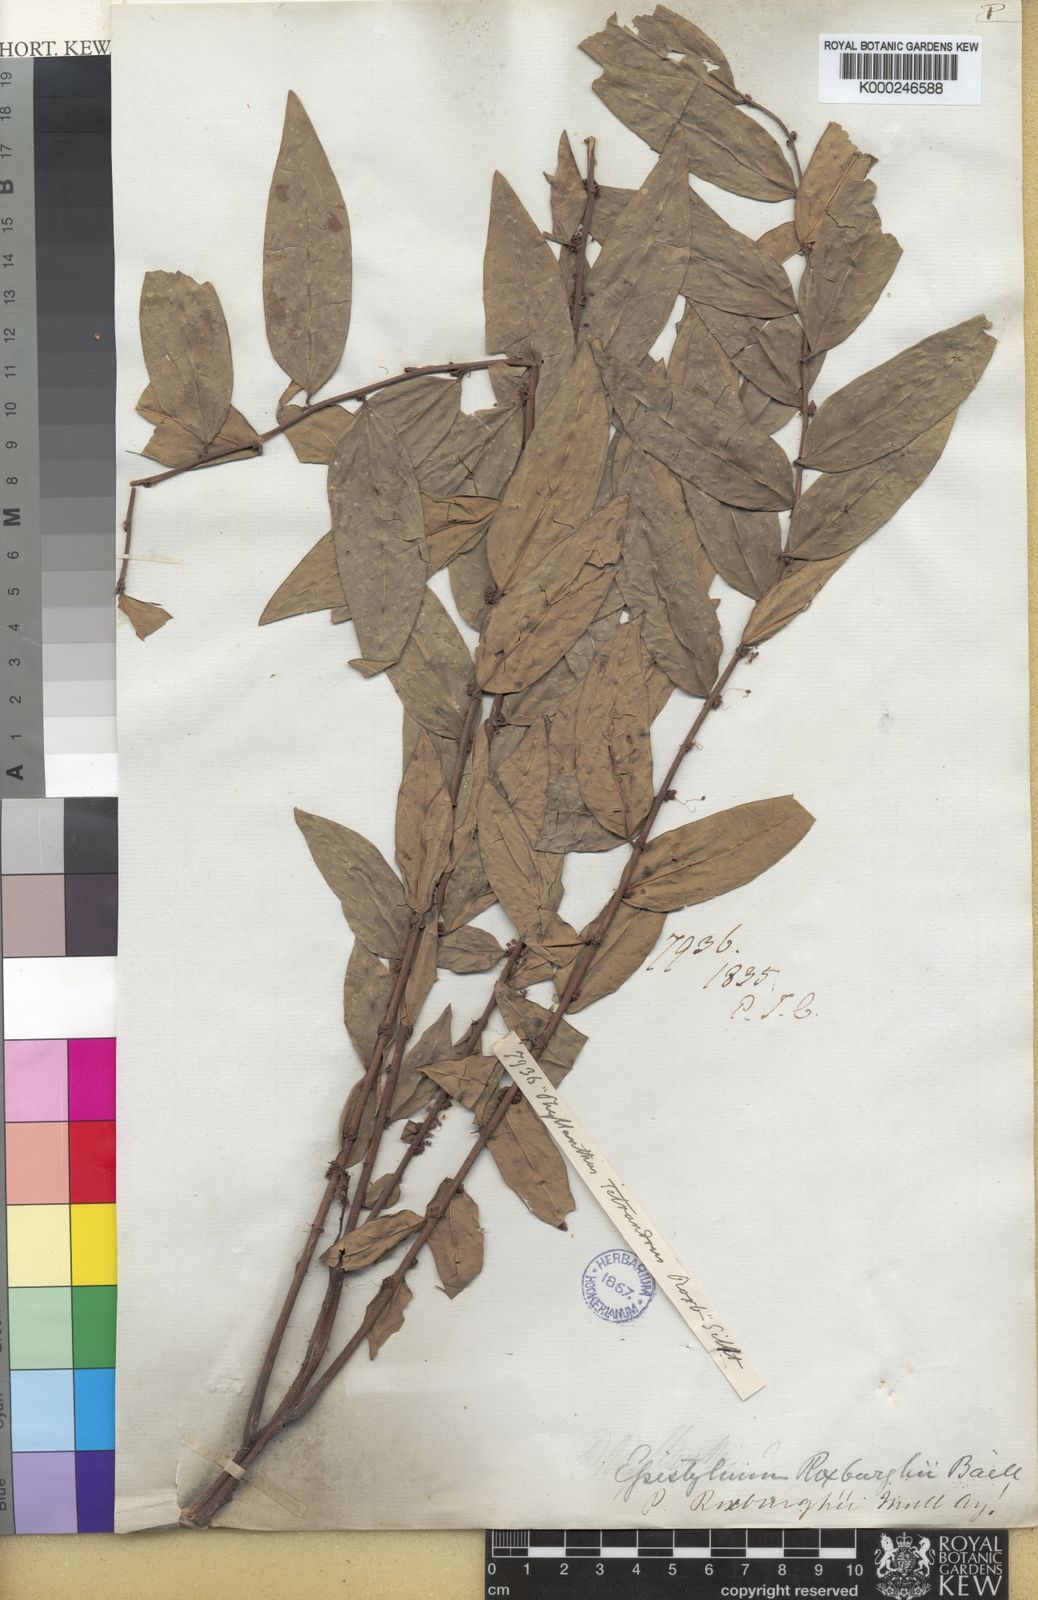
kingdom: Plantae
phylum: Tracheophyta
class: Magnoliopsida
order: Malpighiales
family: Phyllanthaceae
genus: Phyllanthus
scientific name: Phyllanthus tetrandrus
